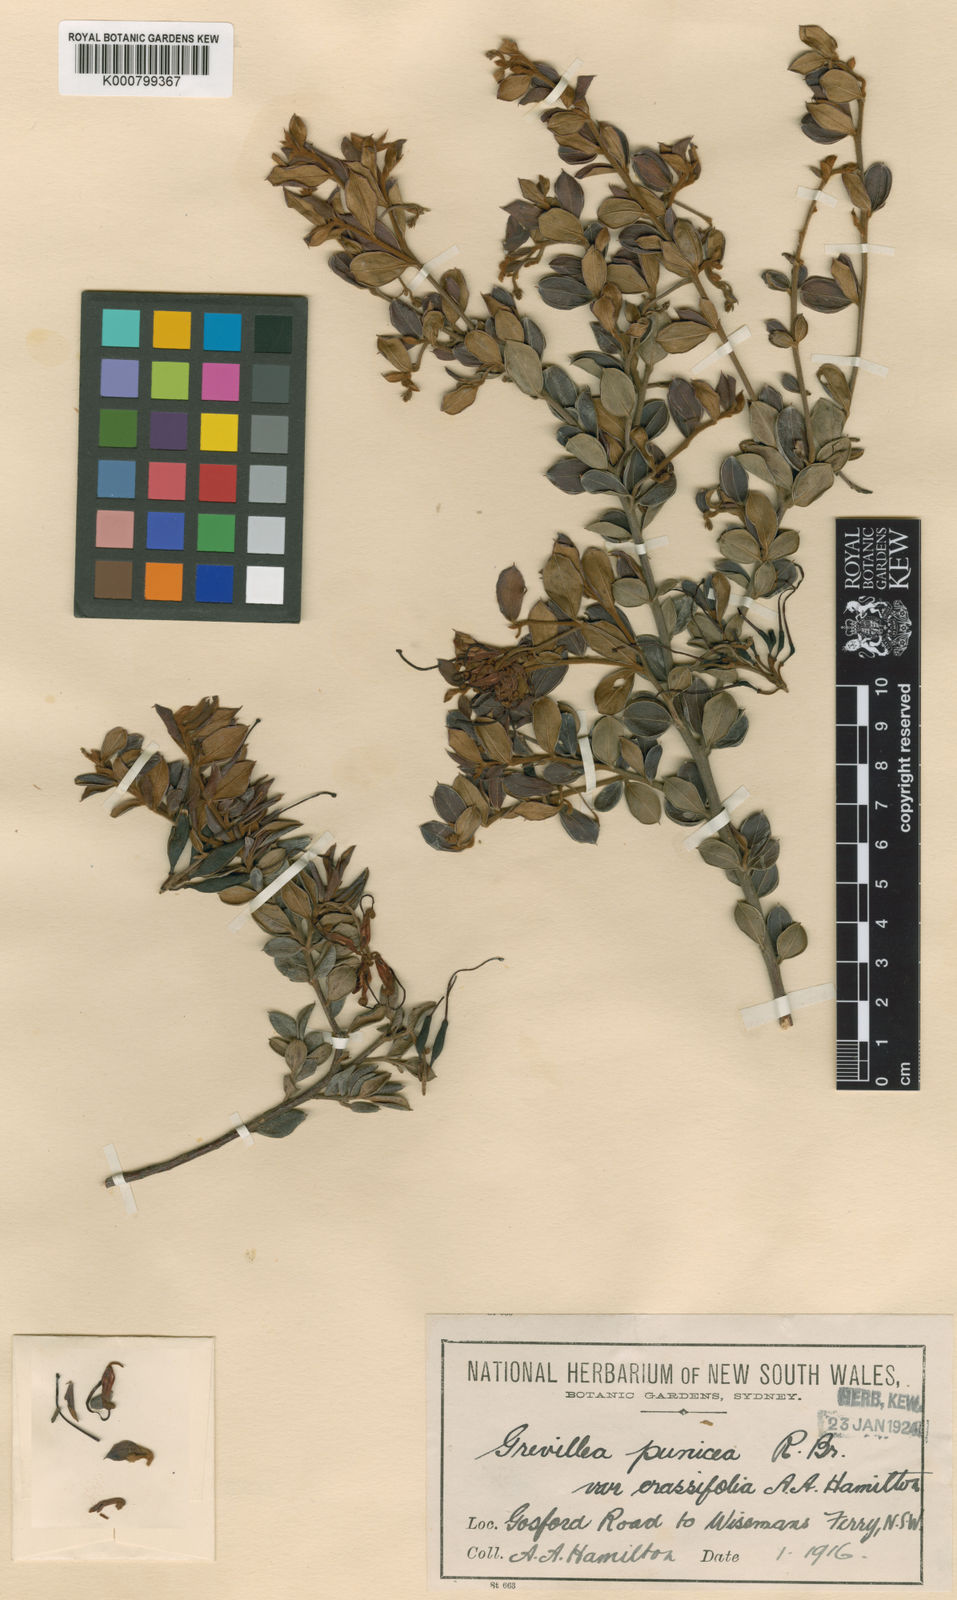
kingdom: Plantae
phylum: Tracheophyta
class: Magnoliopsida
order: Proteales
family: Proteaceae
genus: Grevillea
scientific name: Grevillea speciosa
